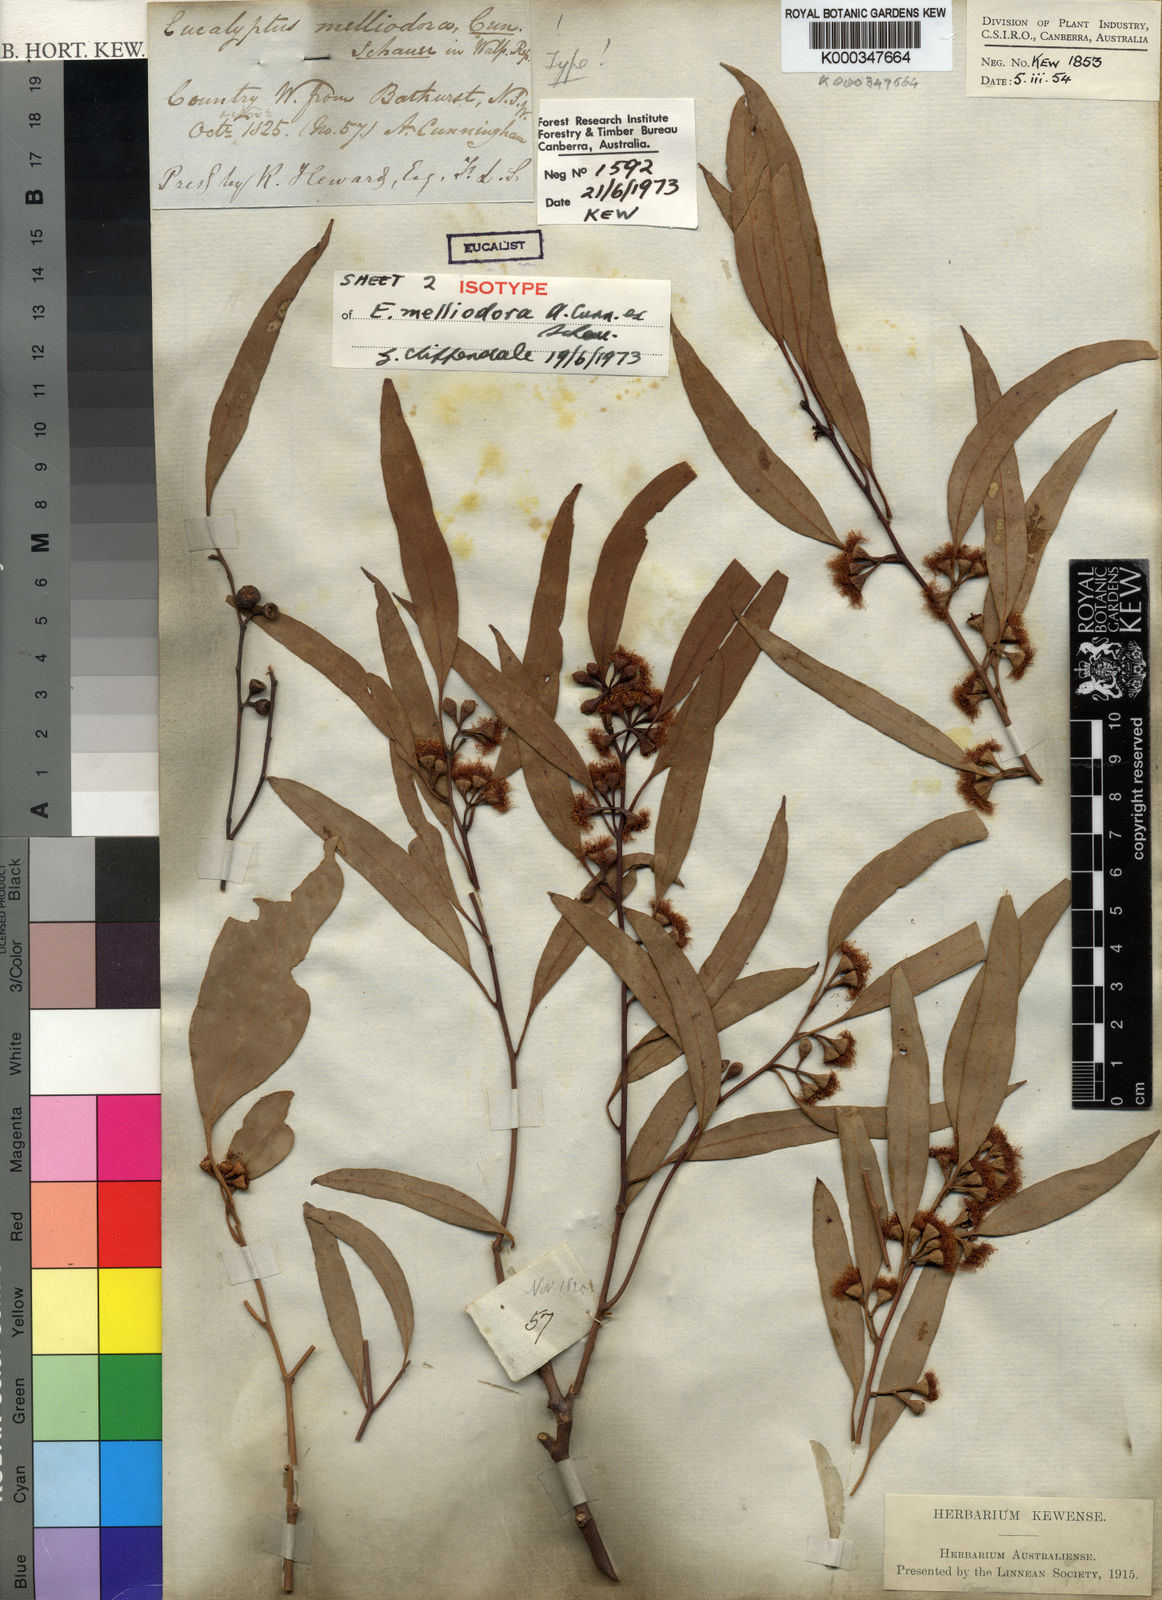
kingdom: Plantae
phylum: Tracheophyta
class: Magnoliopsida
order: Myrtales
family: Myrtaceae
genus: Eucalyptus
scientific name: Eucalyptus melliodora
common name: Yellow ironbox
